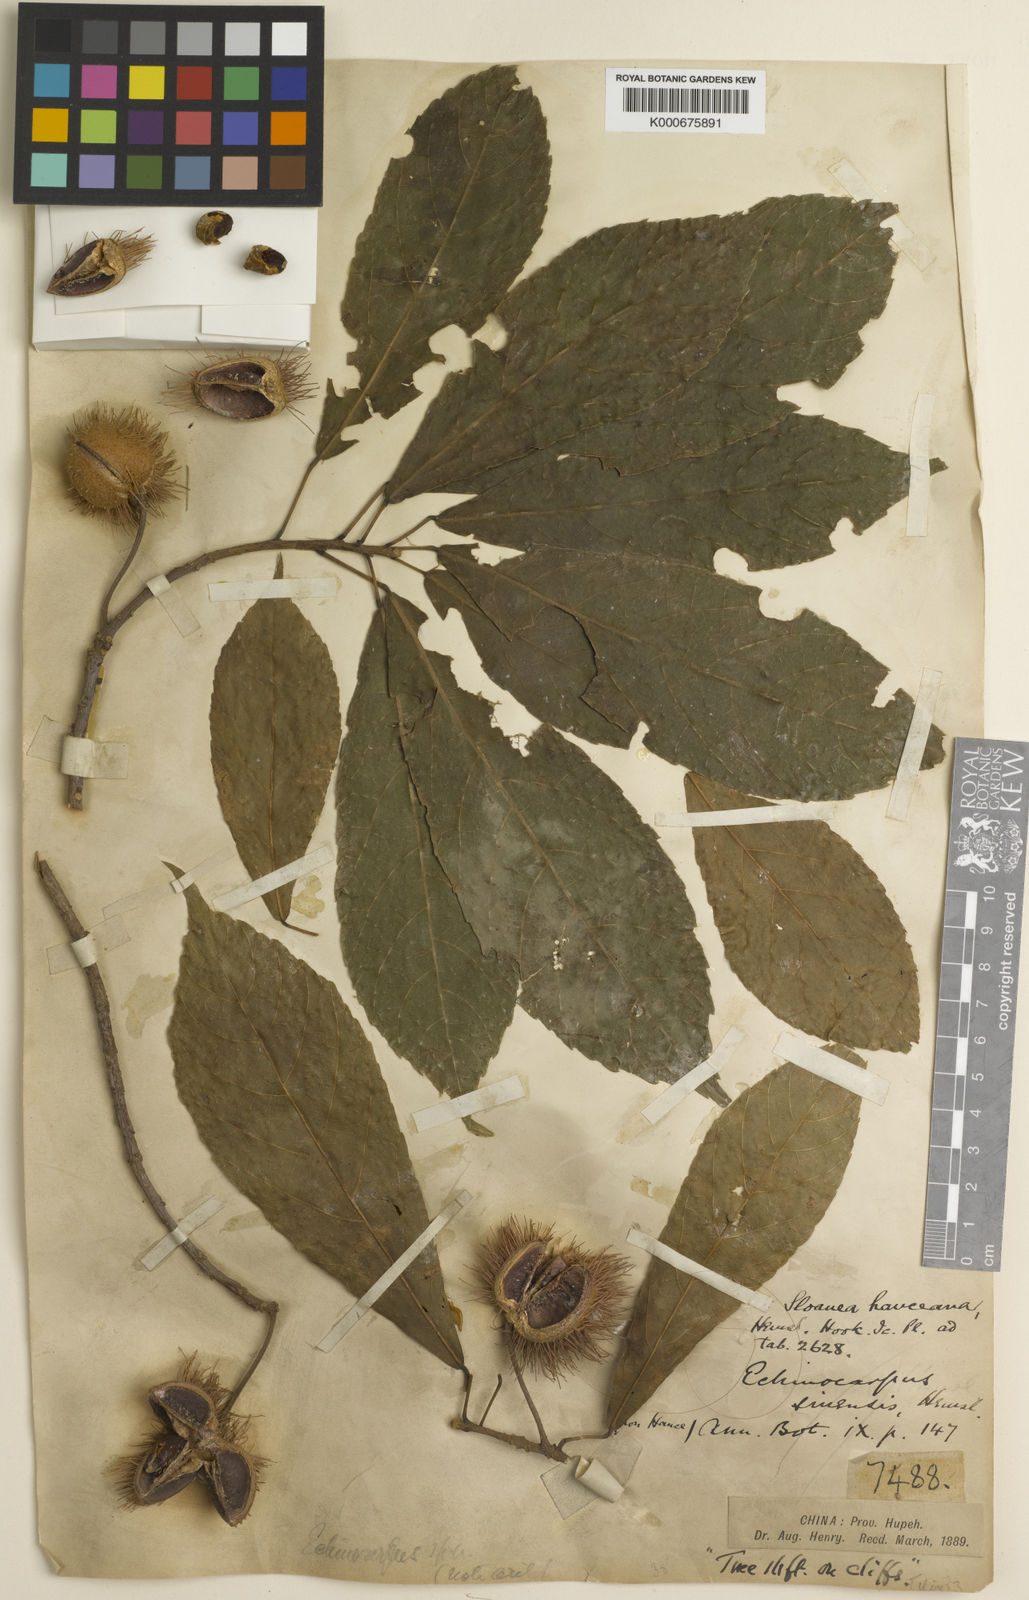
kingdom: Plantae
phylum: Tracheophyta
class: Magnoliopsida
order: Oxalidales
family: Elaeocarpaceae
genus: Sloanea
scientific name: Sloanea hemsleyana
